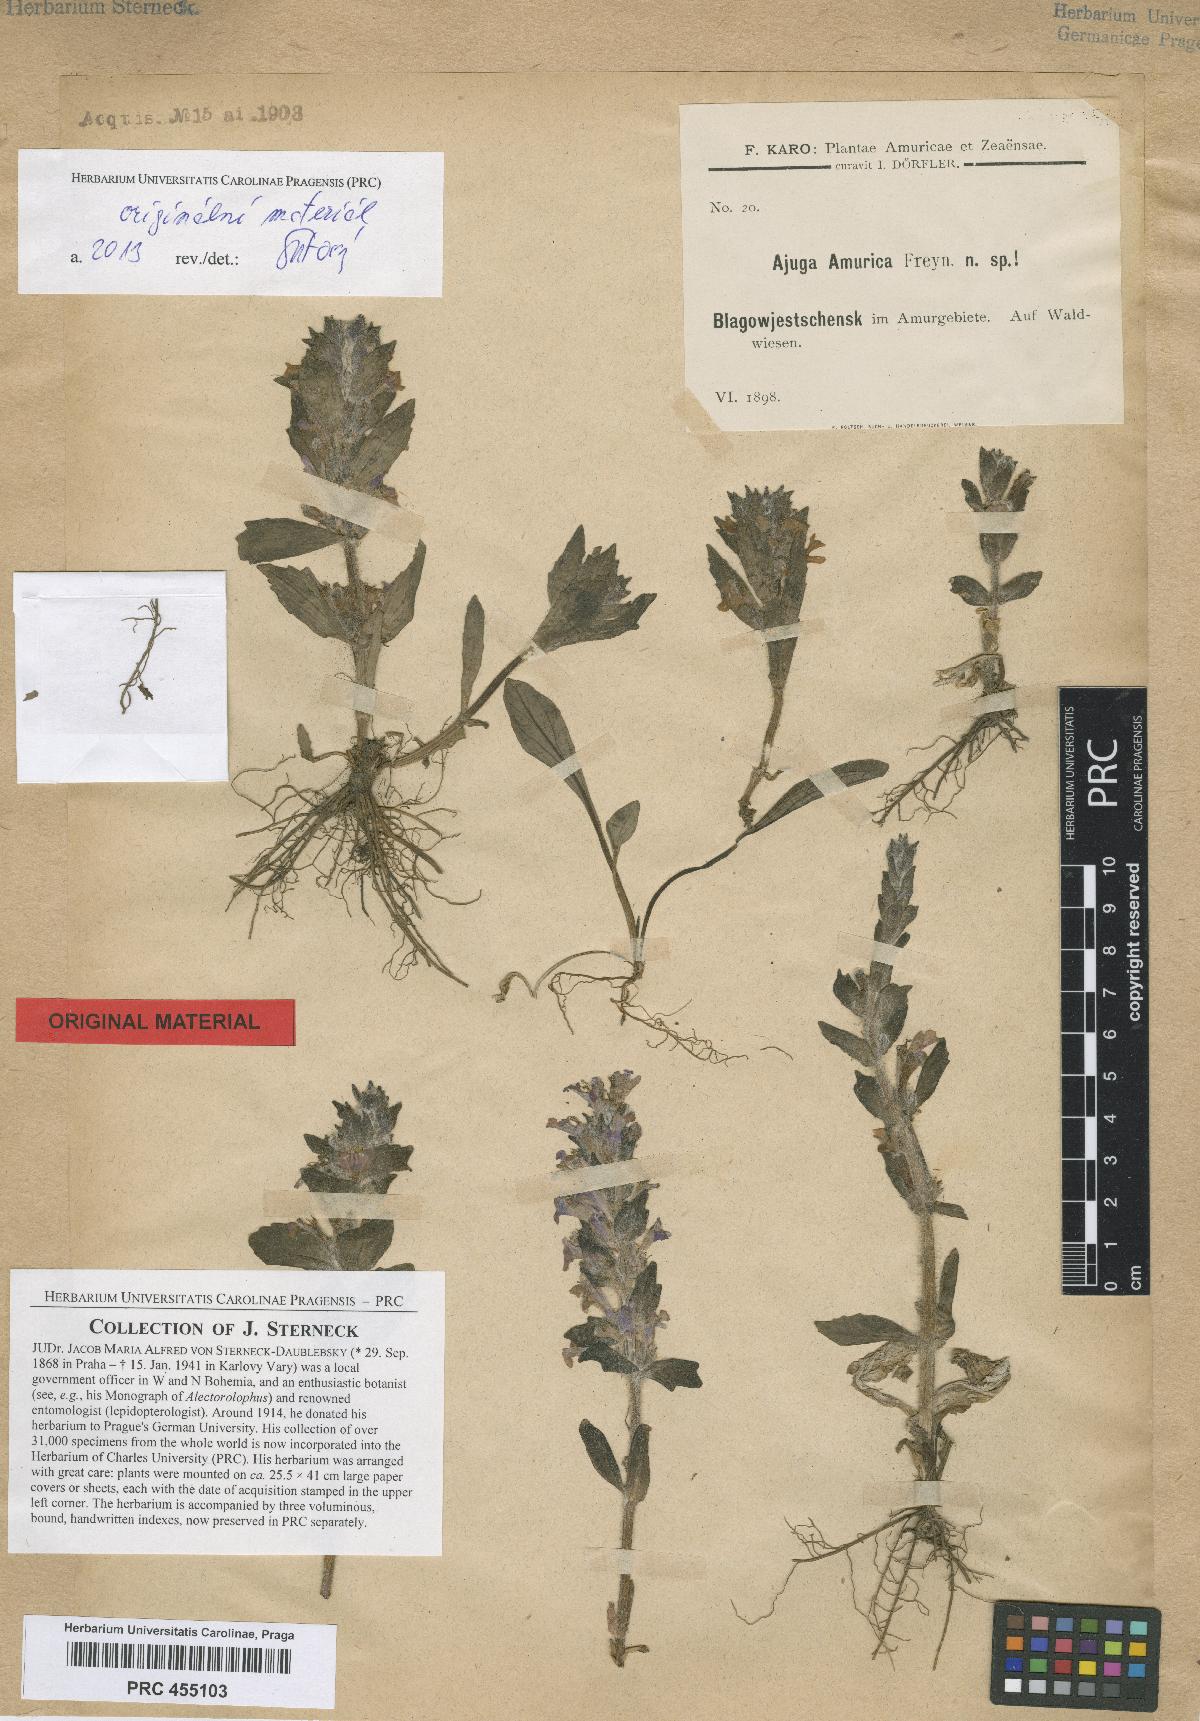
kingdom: Plantae
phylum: Tracheophyta
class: Magnoliopsida
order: Lamiales
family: Lamiaceae
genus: Ajuga
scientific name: Ajuga multiflora
